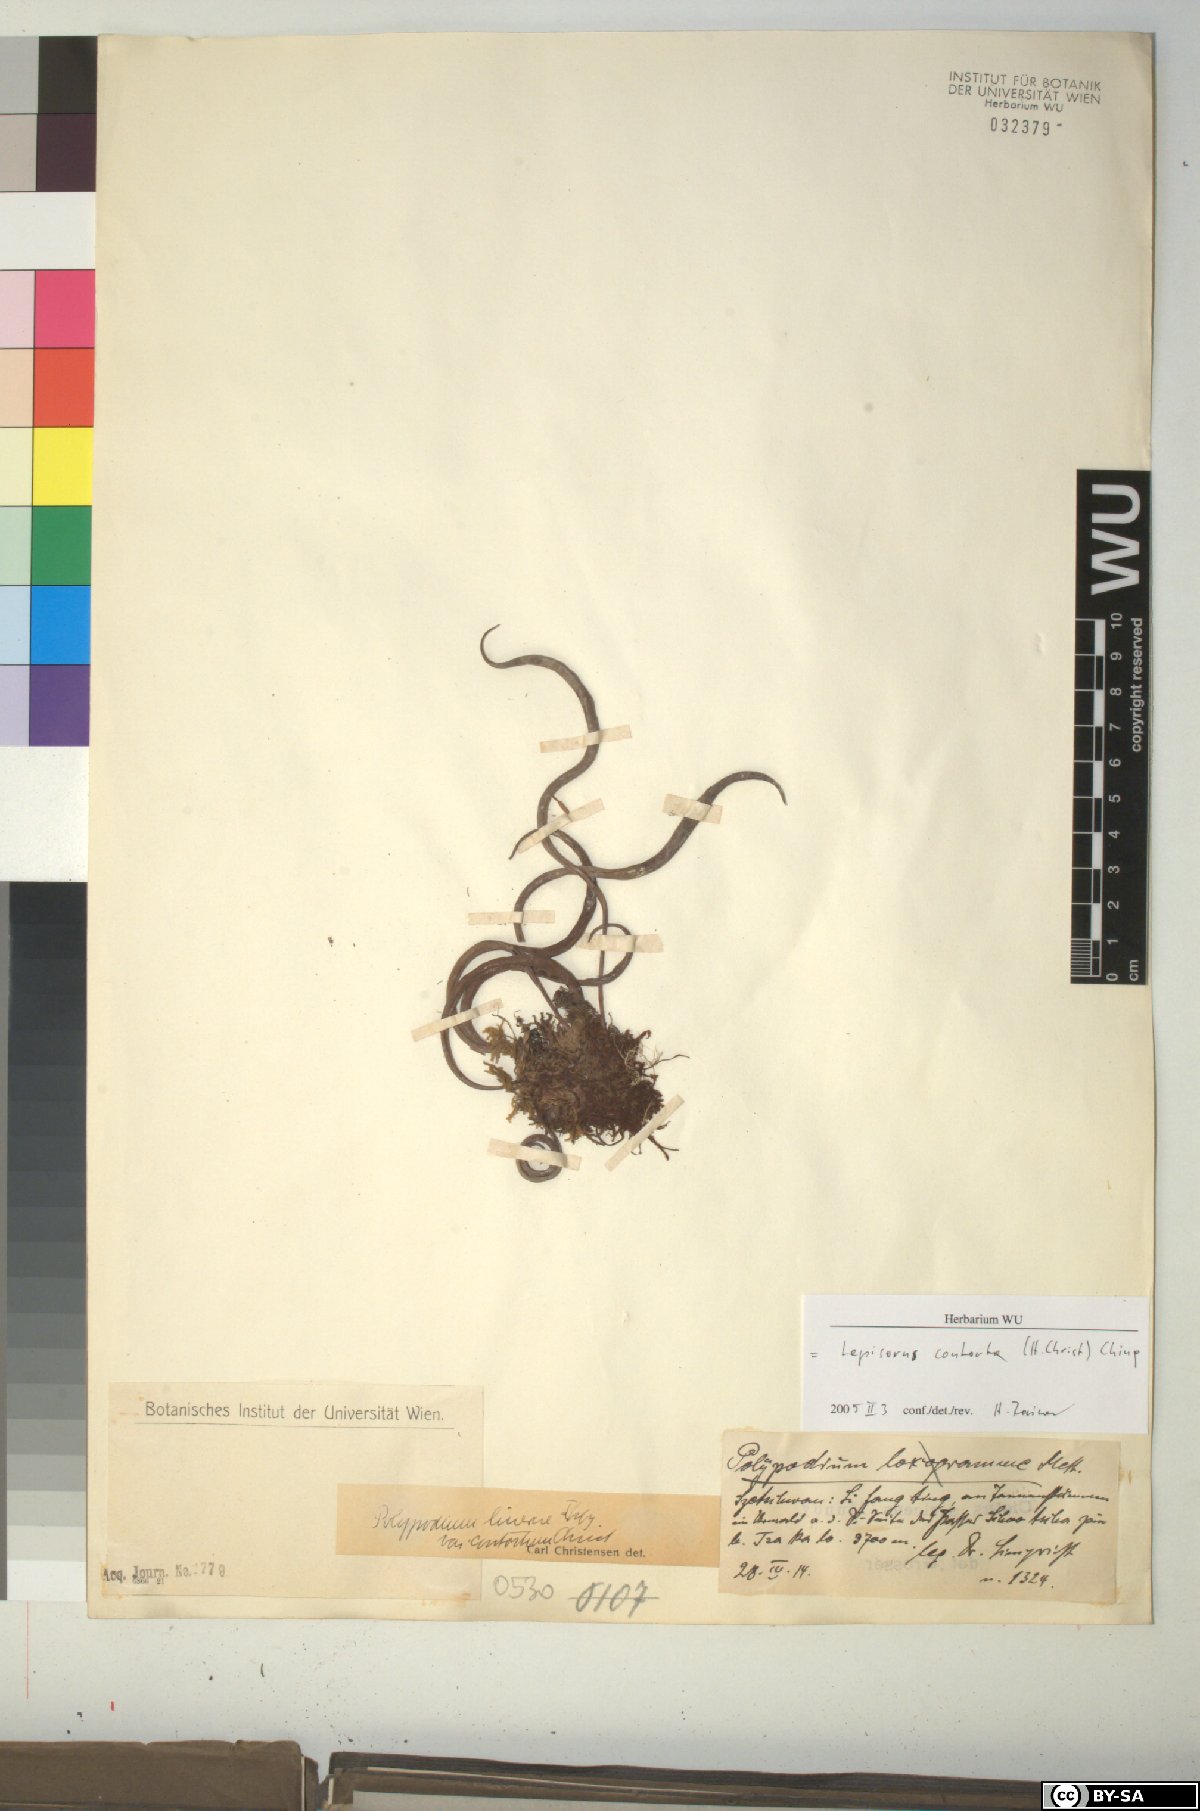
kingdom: Plantae
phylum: Tracheophyta
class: Polypodiopsida
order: Polypodiales
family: Polypodiaceae
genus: Lepisorus
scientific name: Lepisorus contortus
